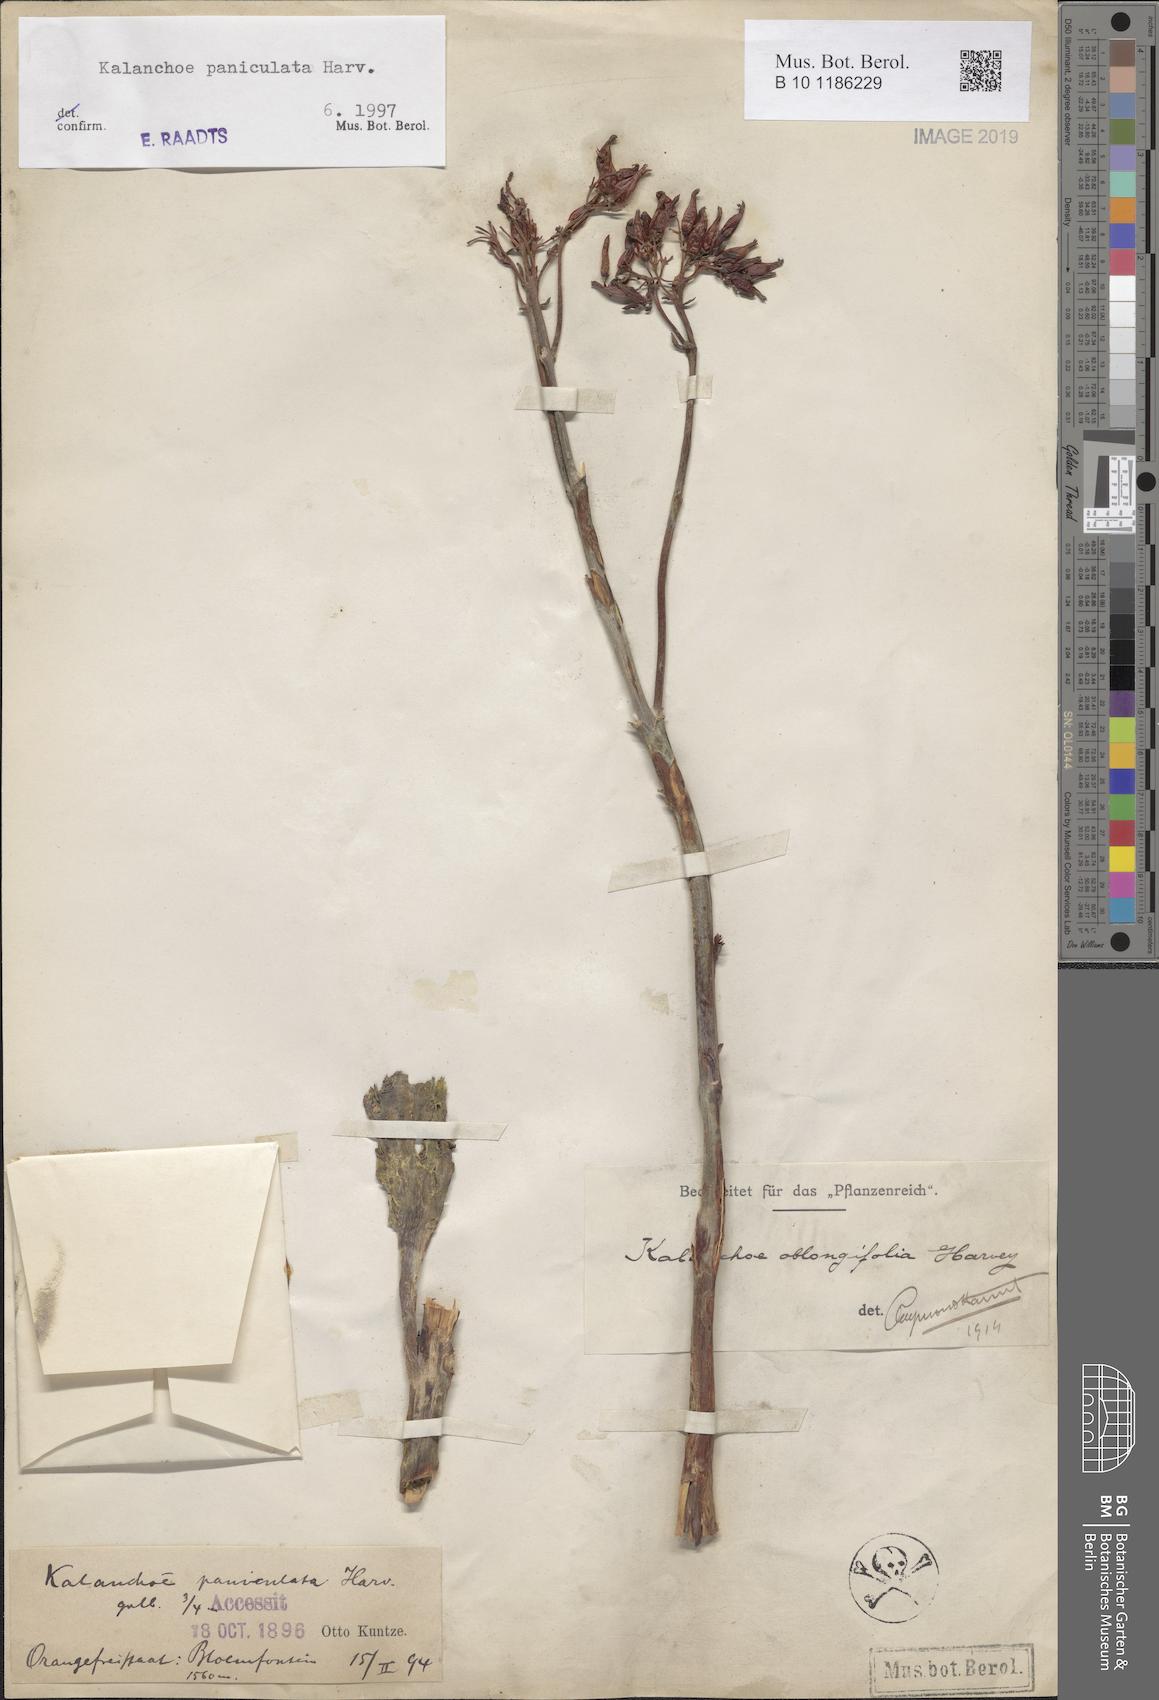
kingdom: Plantae
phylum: Tracheophyta
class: Magnoliopsida
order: Saxifragales
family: Crassulaceae
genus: Kalanchoe
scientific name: Kalanchoe paniculata
